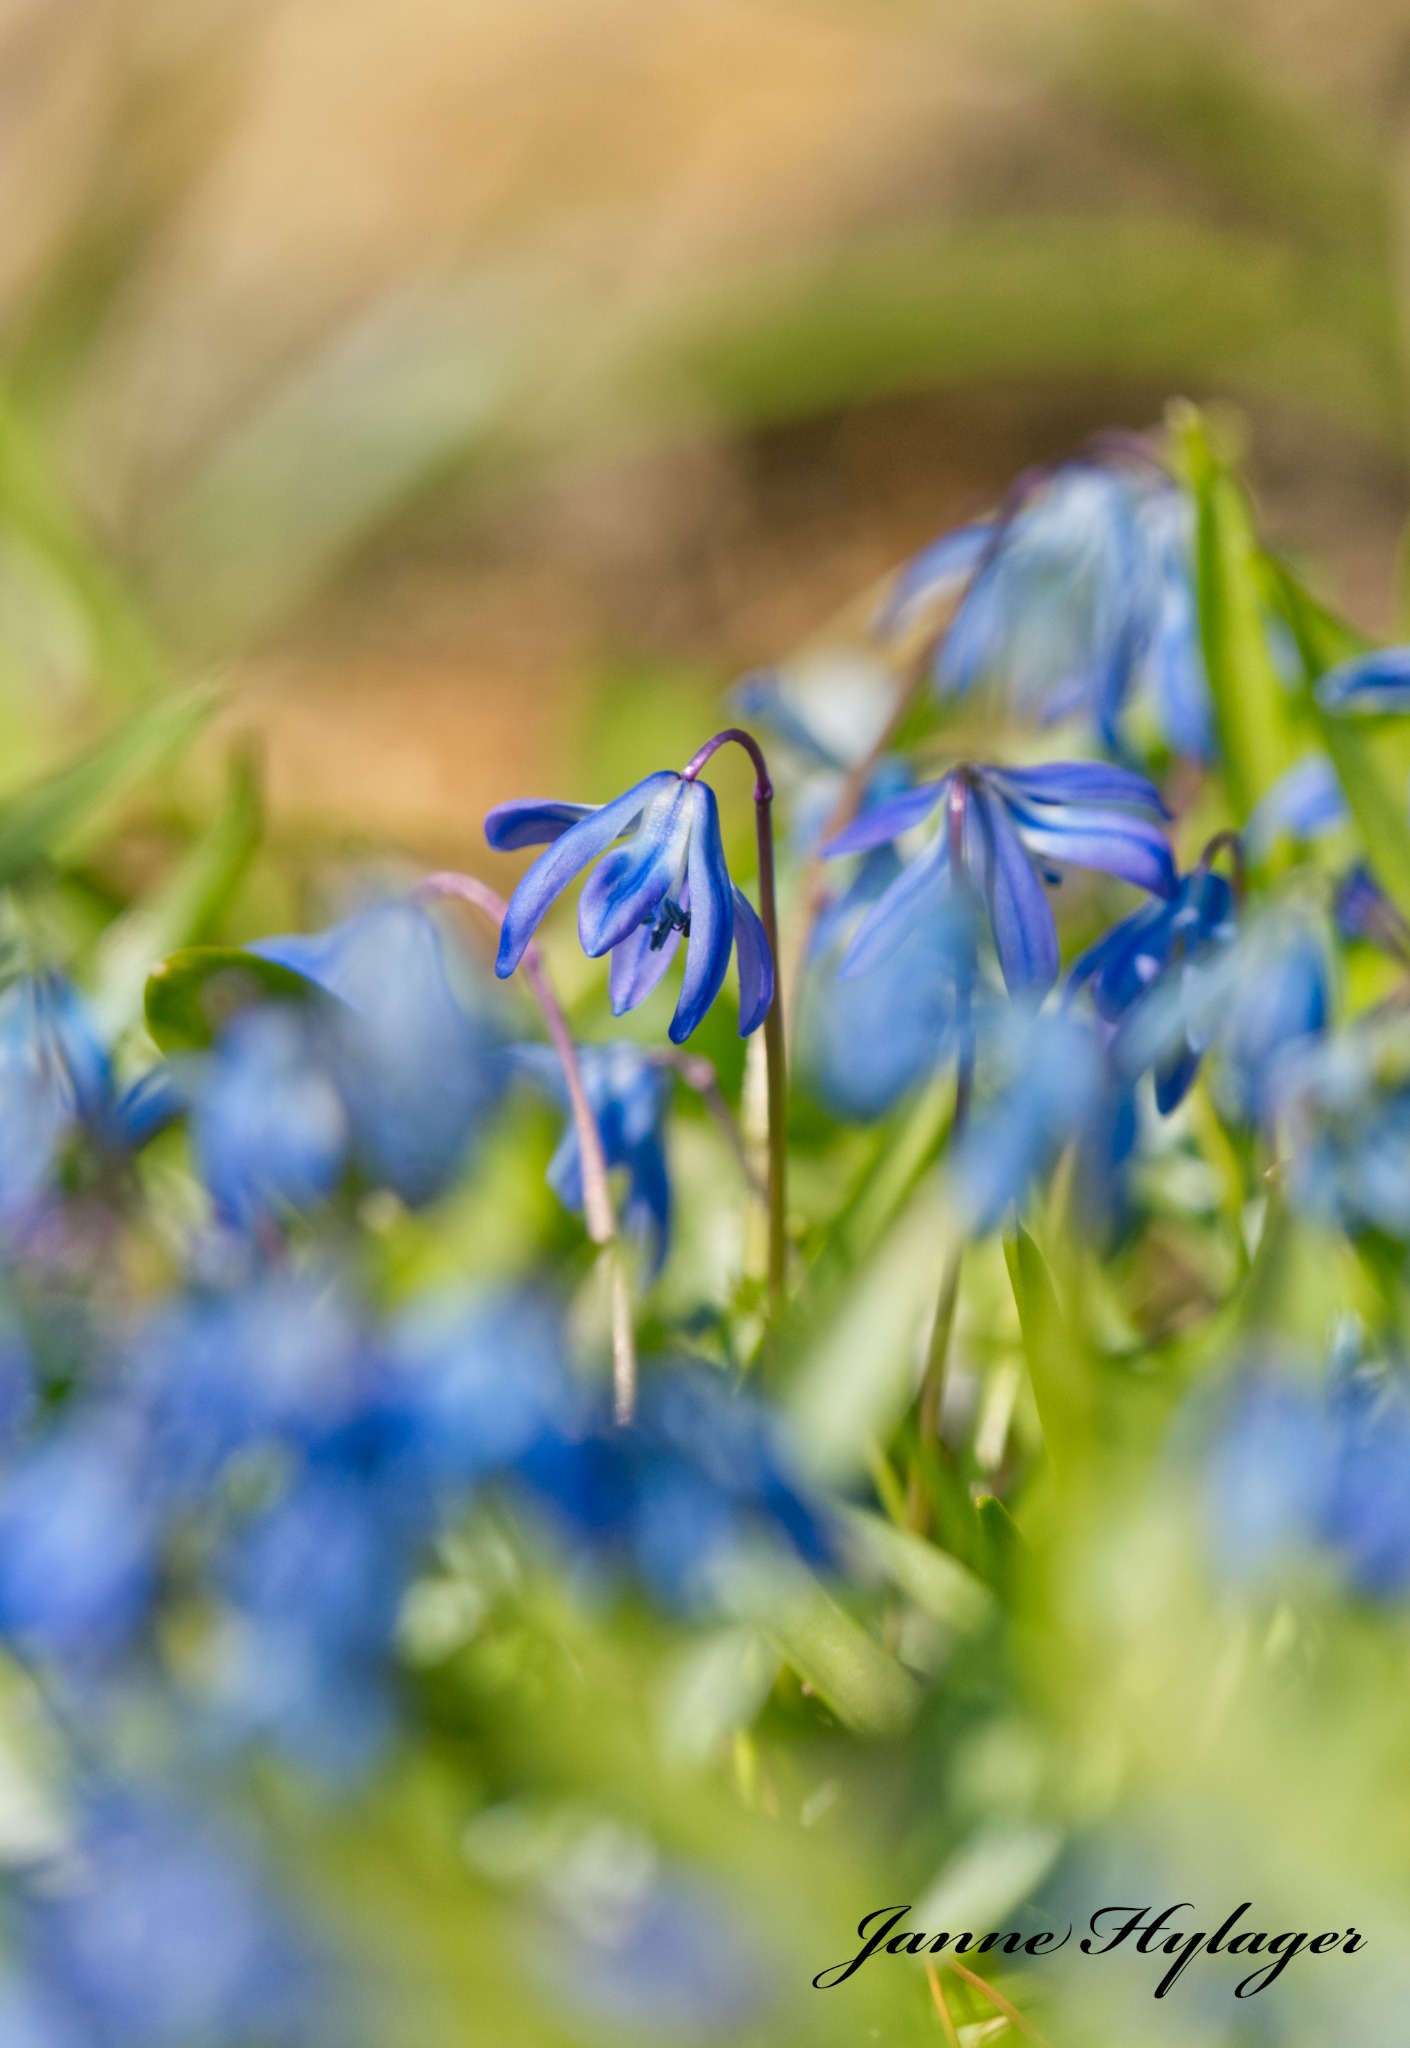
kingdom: Plantae
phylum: Tracheophyta
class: Liliopsida
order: Asparagales
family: Asparagaceae
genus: Scilla
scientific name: Scilla siberica
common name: Russisk skilla
